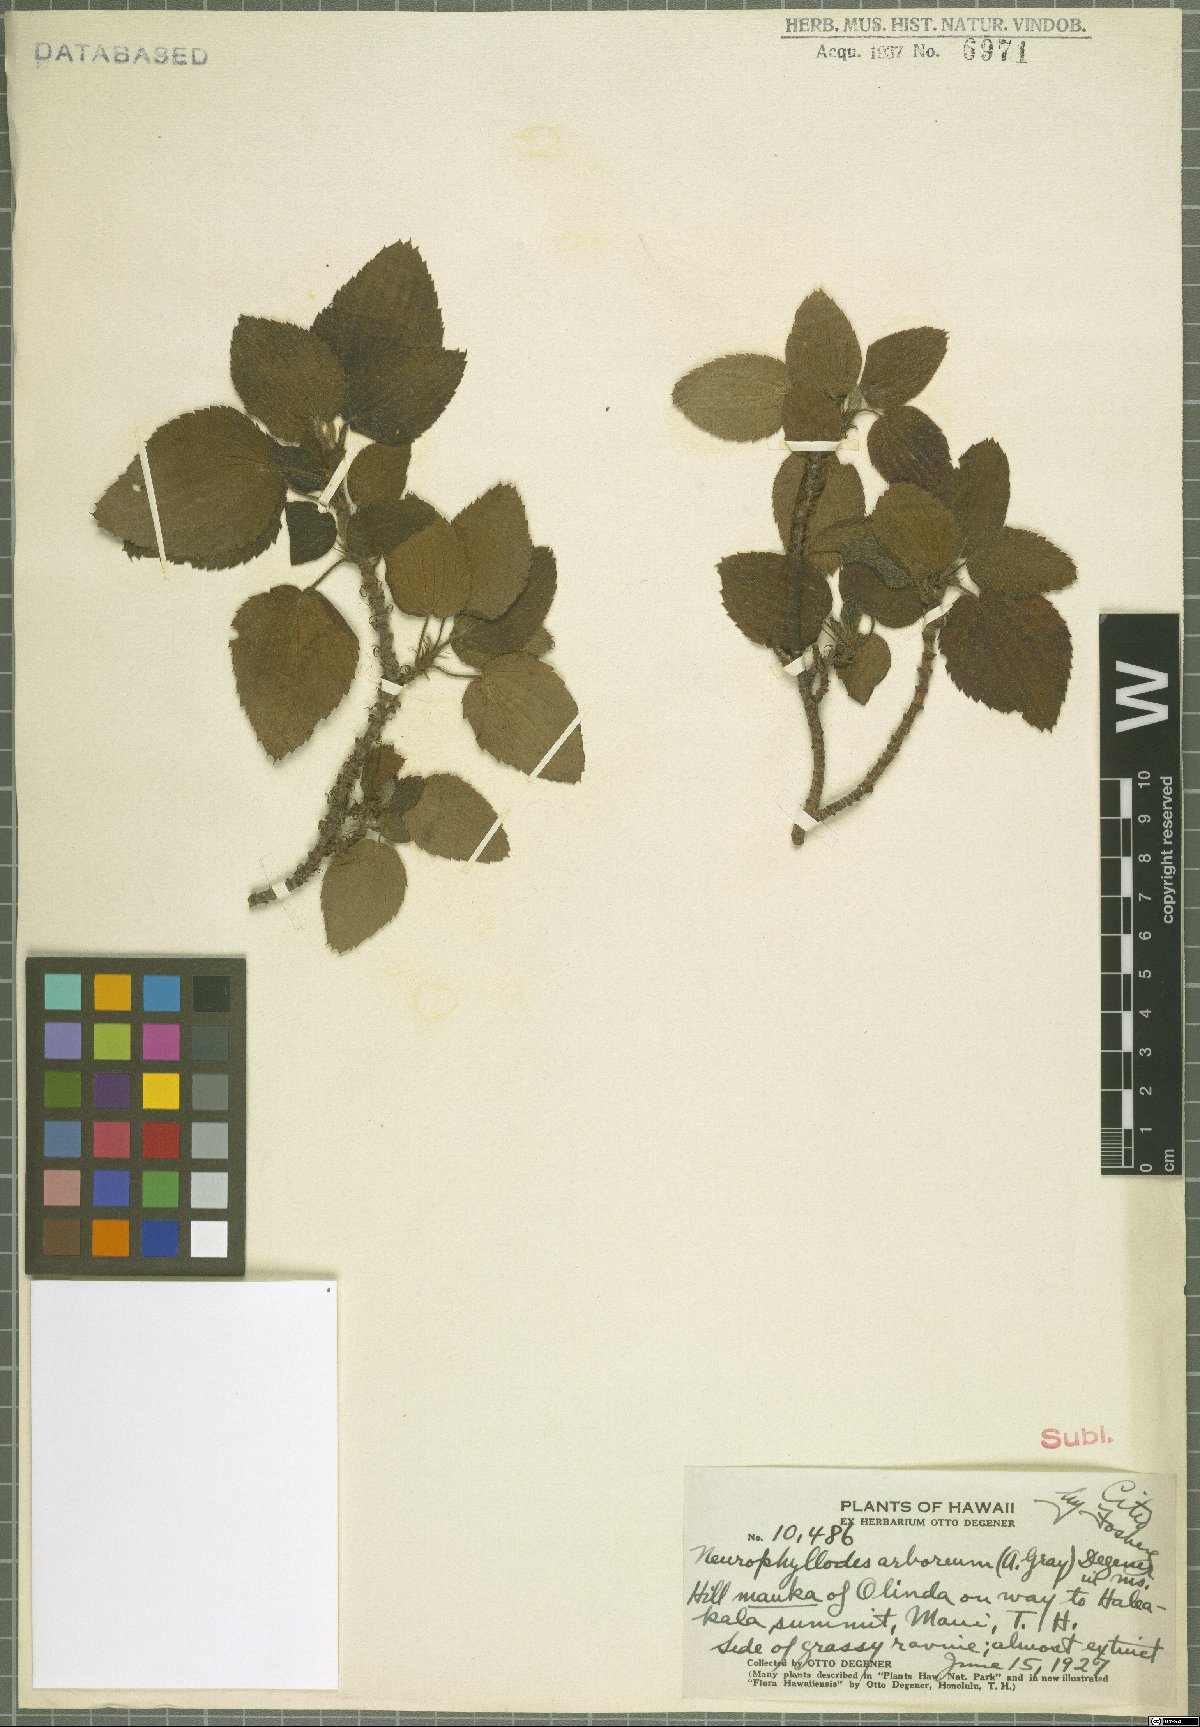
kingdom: Plantae
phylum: Tracheophyta
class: Magnoliopsida
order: Geraniales
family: Geraniaceae
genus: Geranium
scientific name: Geranium arboreum
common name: Hawaiian red-flower geranium
